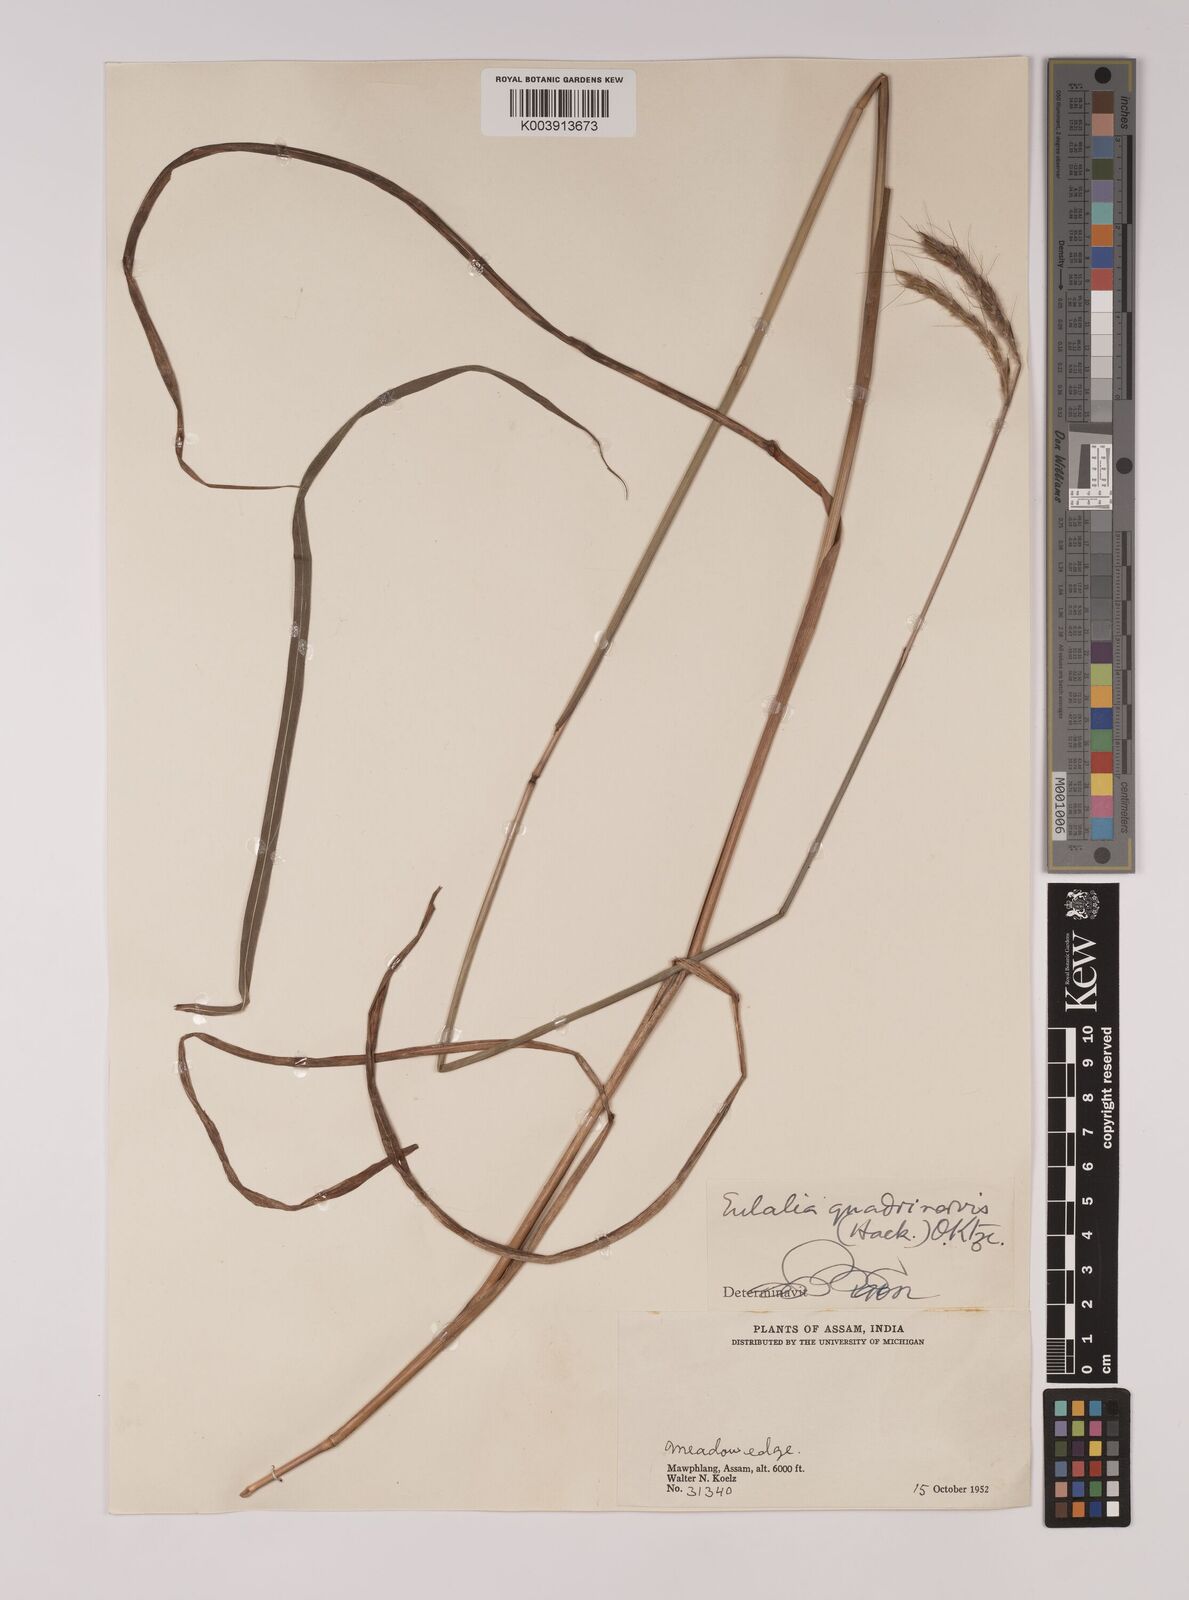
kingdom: Plantae
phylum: Tracheophyta
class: Liliopsida
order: Poales
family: Poaceae
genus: Pseudopogonatherum
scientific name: Pseudopogonatherum quadrinerve
